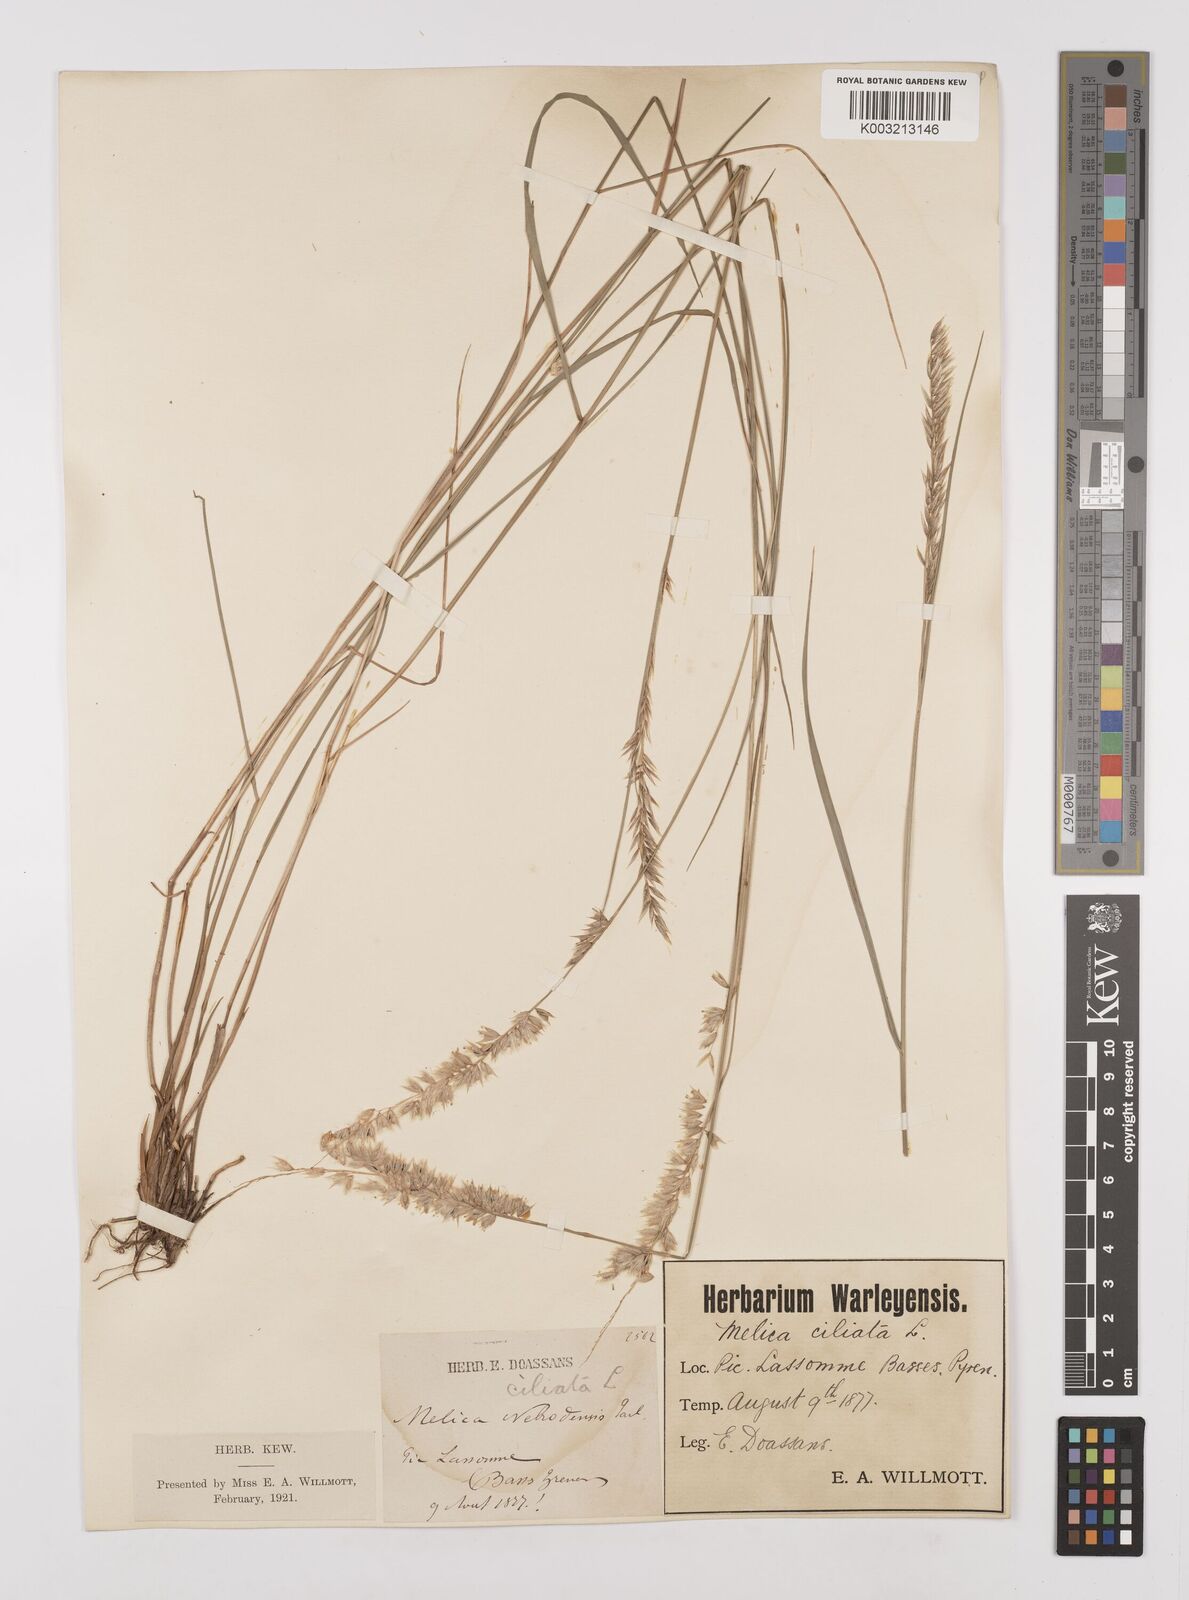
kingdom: Plantae
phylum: Tracheophyta
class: Liliopsida
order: Poales
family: Poaceae
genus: Melica
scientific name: Melica ciliata
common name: Hairy melicgrass
